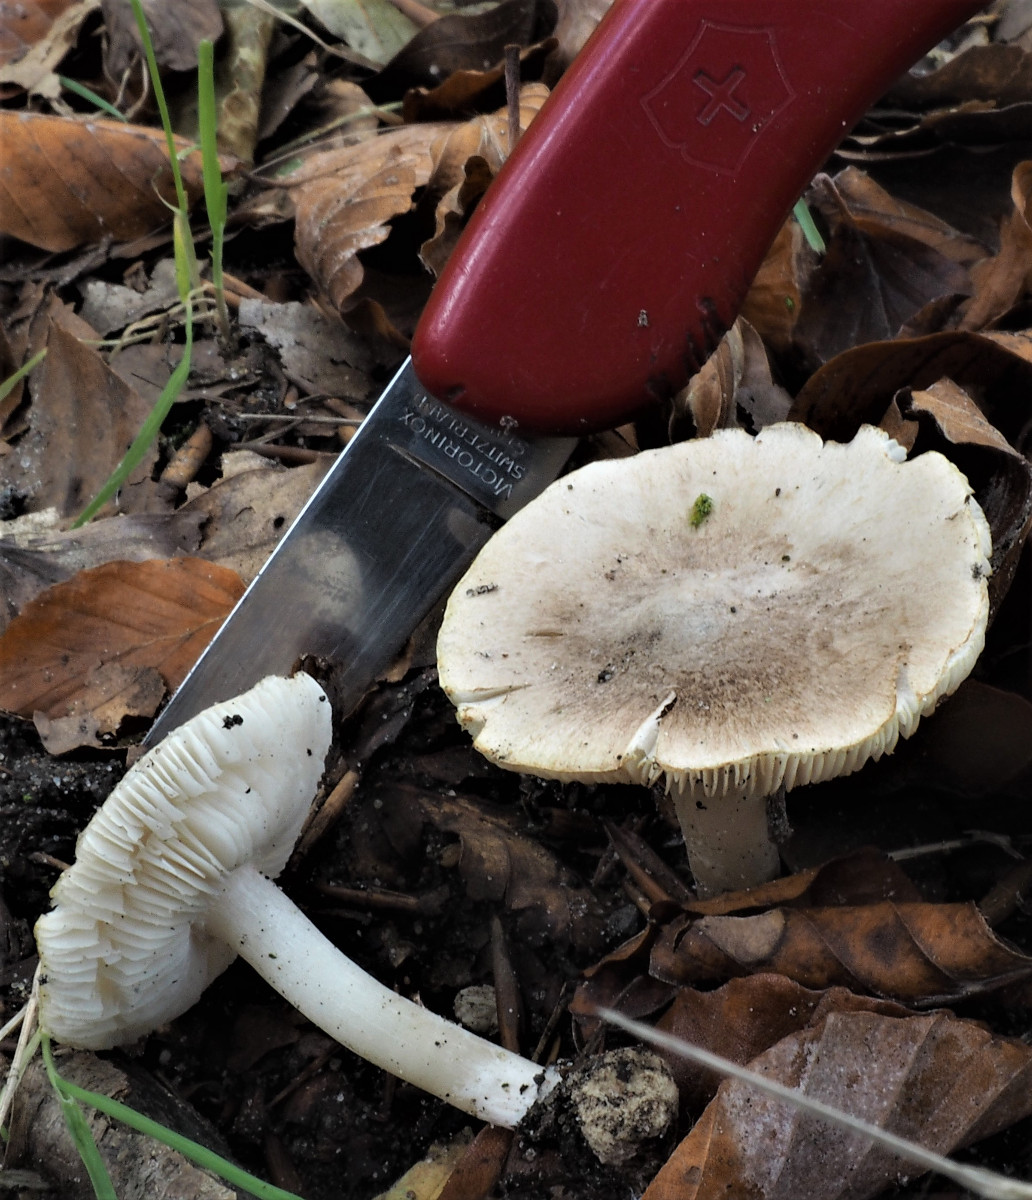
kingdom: Fungi
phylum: Basidiomycota
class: Agaricomycetes
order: Agaricales
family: Tricholomataceae
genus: Tricholoma
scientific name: Tricholoma scalpturatum
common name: gulplettet ridderhat
